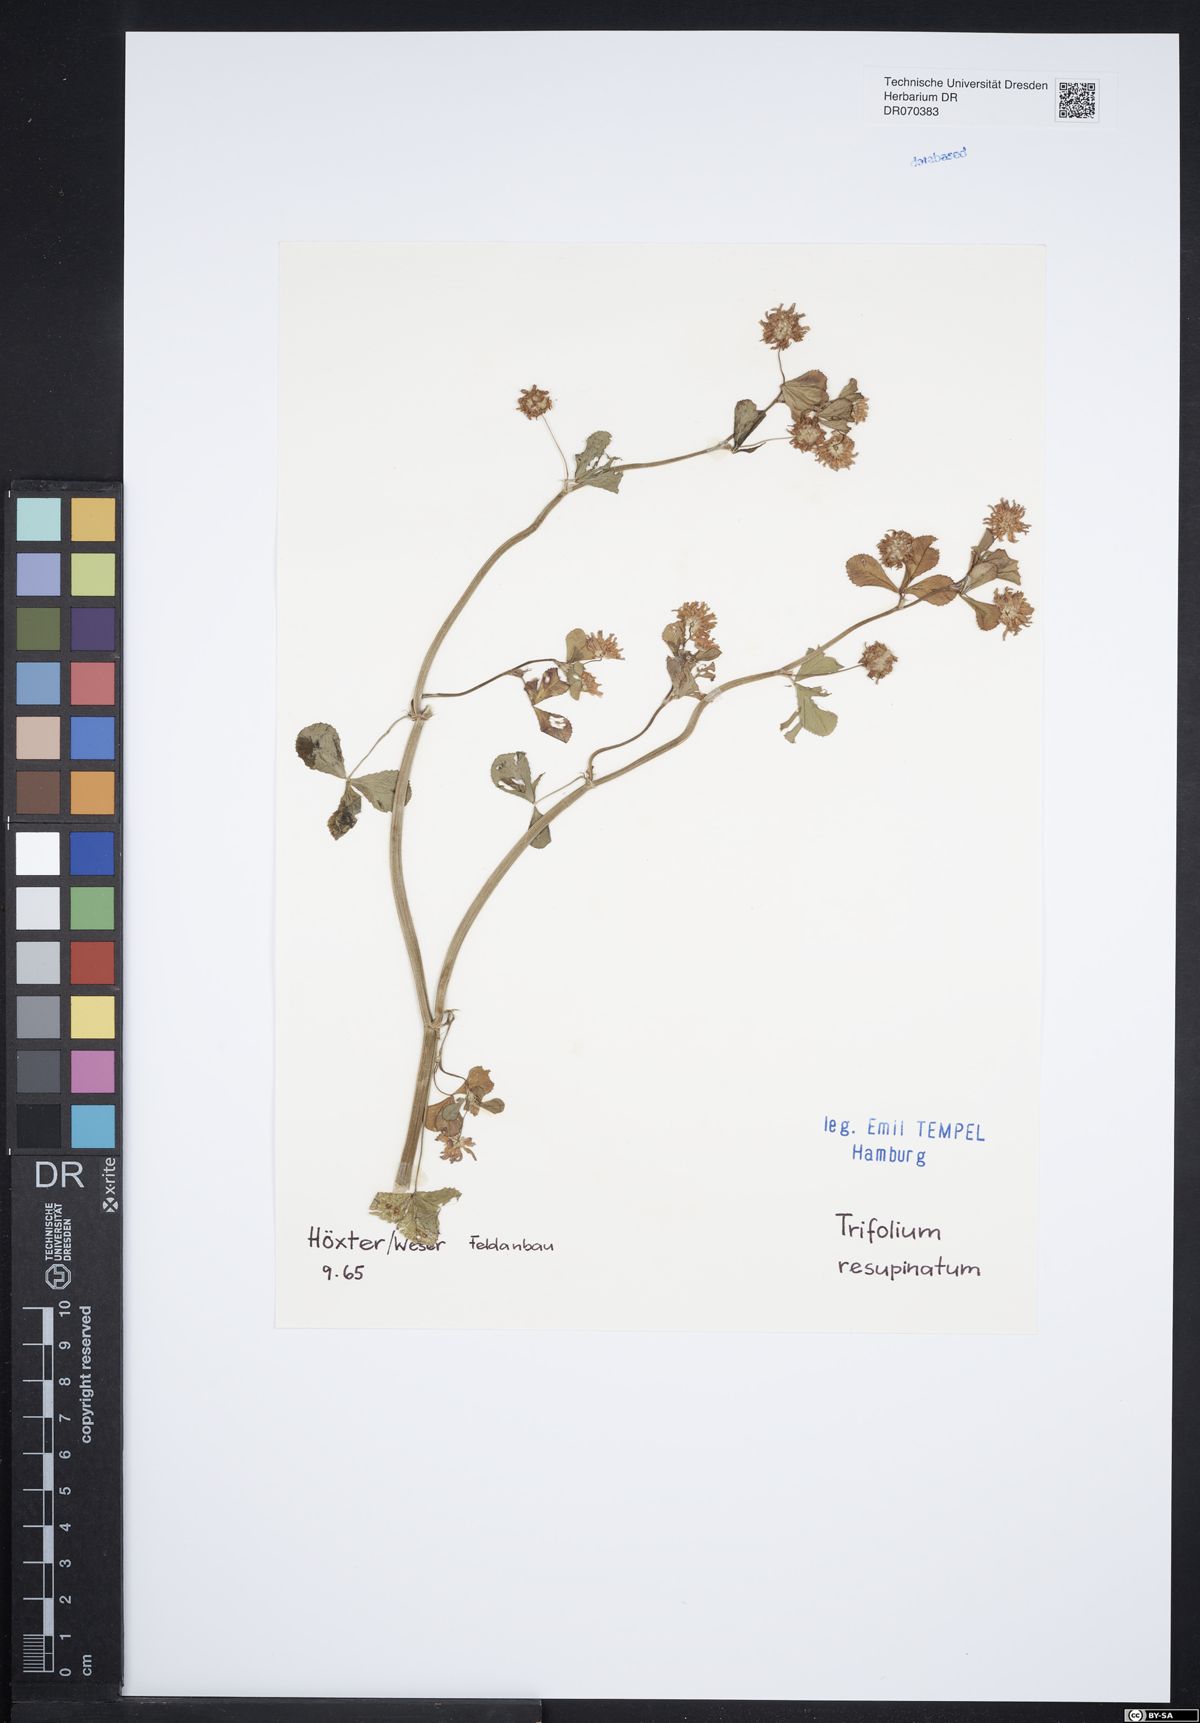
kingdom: Plantae
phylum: Tracheophyta
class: Magnoliopsida
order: Fabales
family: Fabaceae
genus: Trifolium
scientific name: Trifolium resupinatum
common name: Reversed clover
